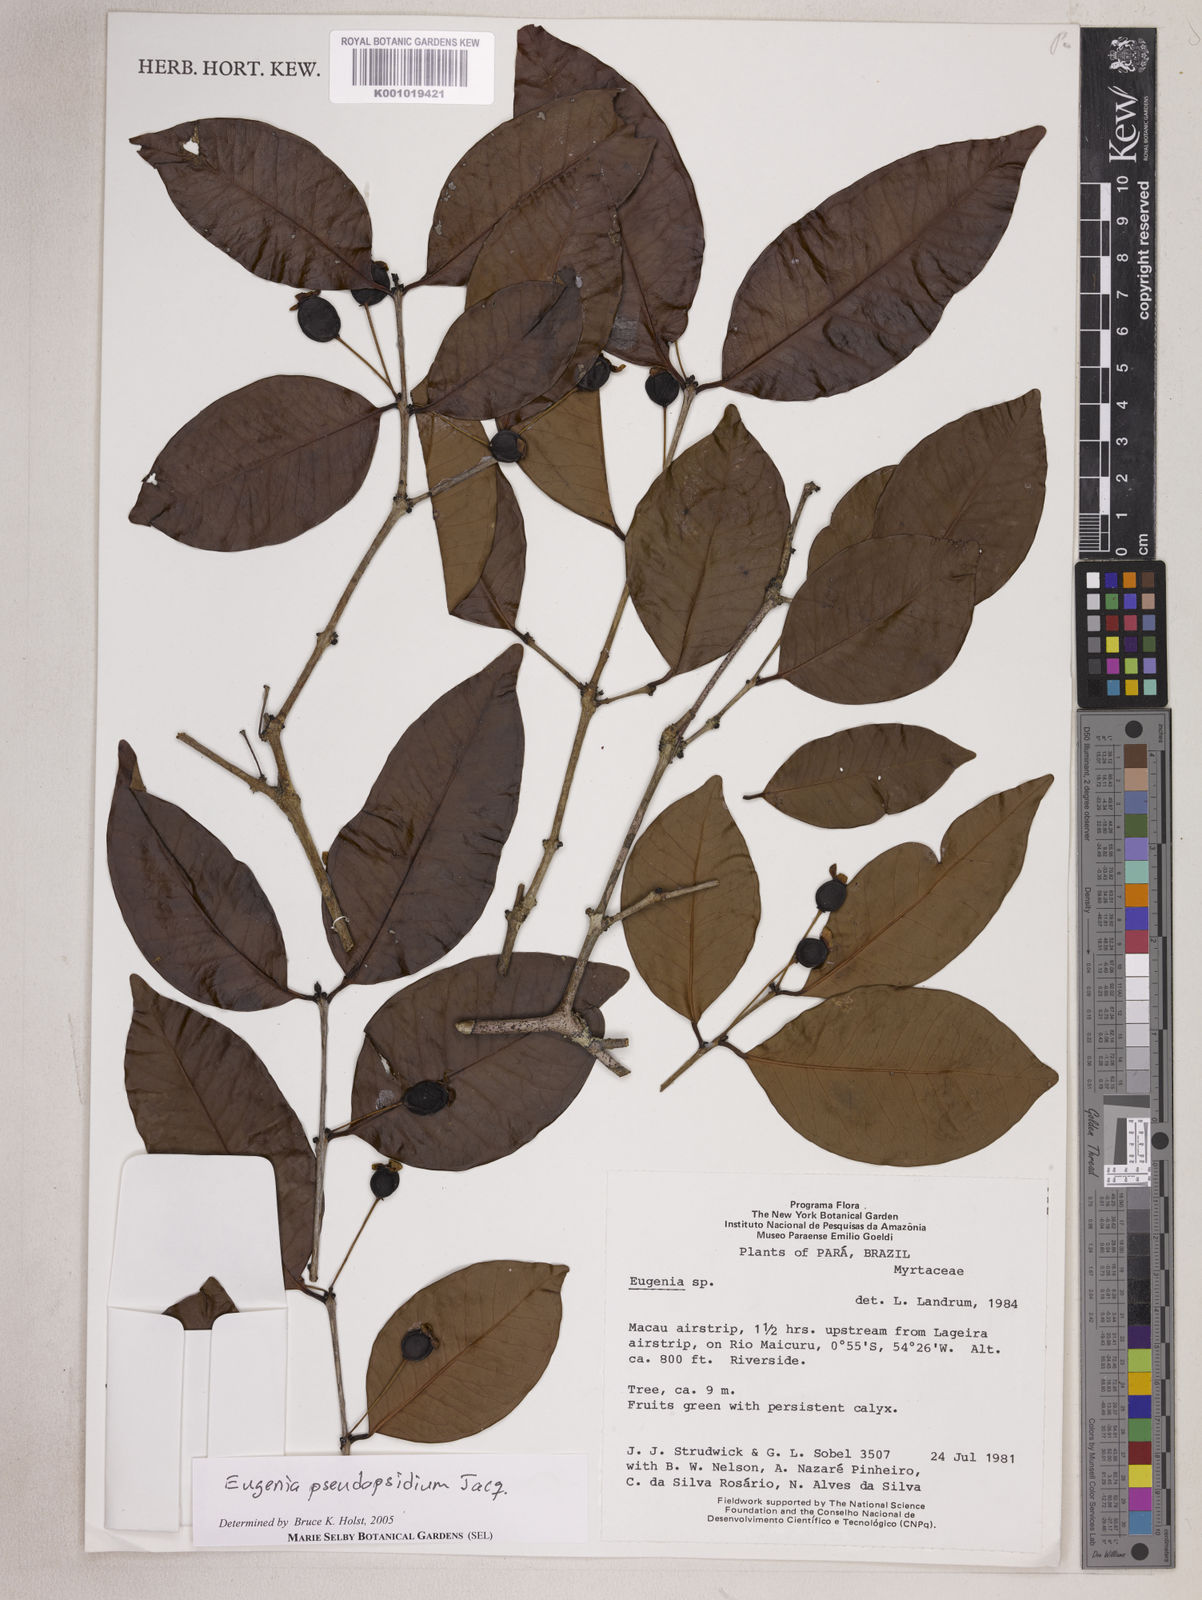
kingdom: Plantae
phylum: Tracheophyta
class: Magnoliopsida
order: Myrtales
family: Myrtaceae
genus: Eugenia
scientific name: Eugenia pseudopsidium
